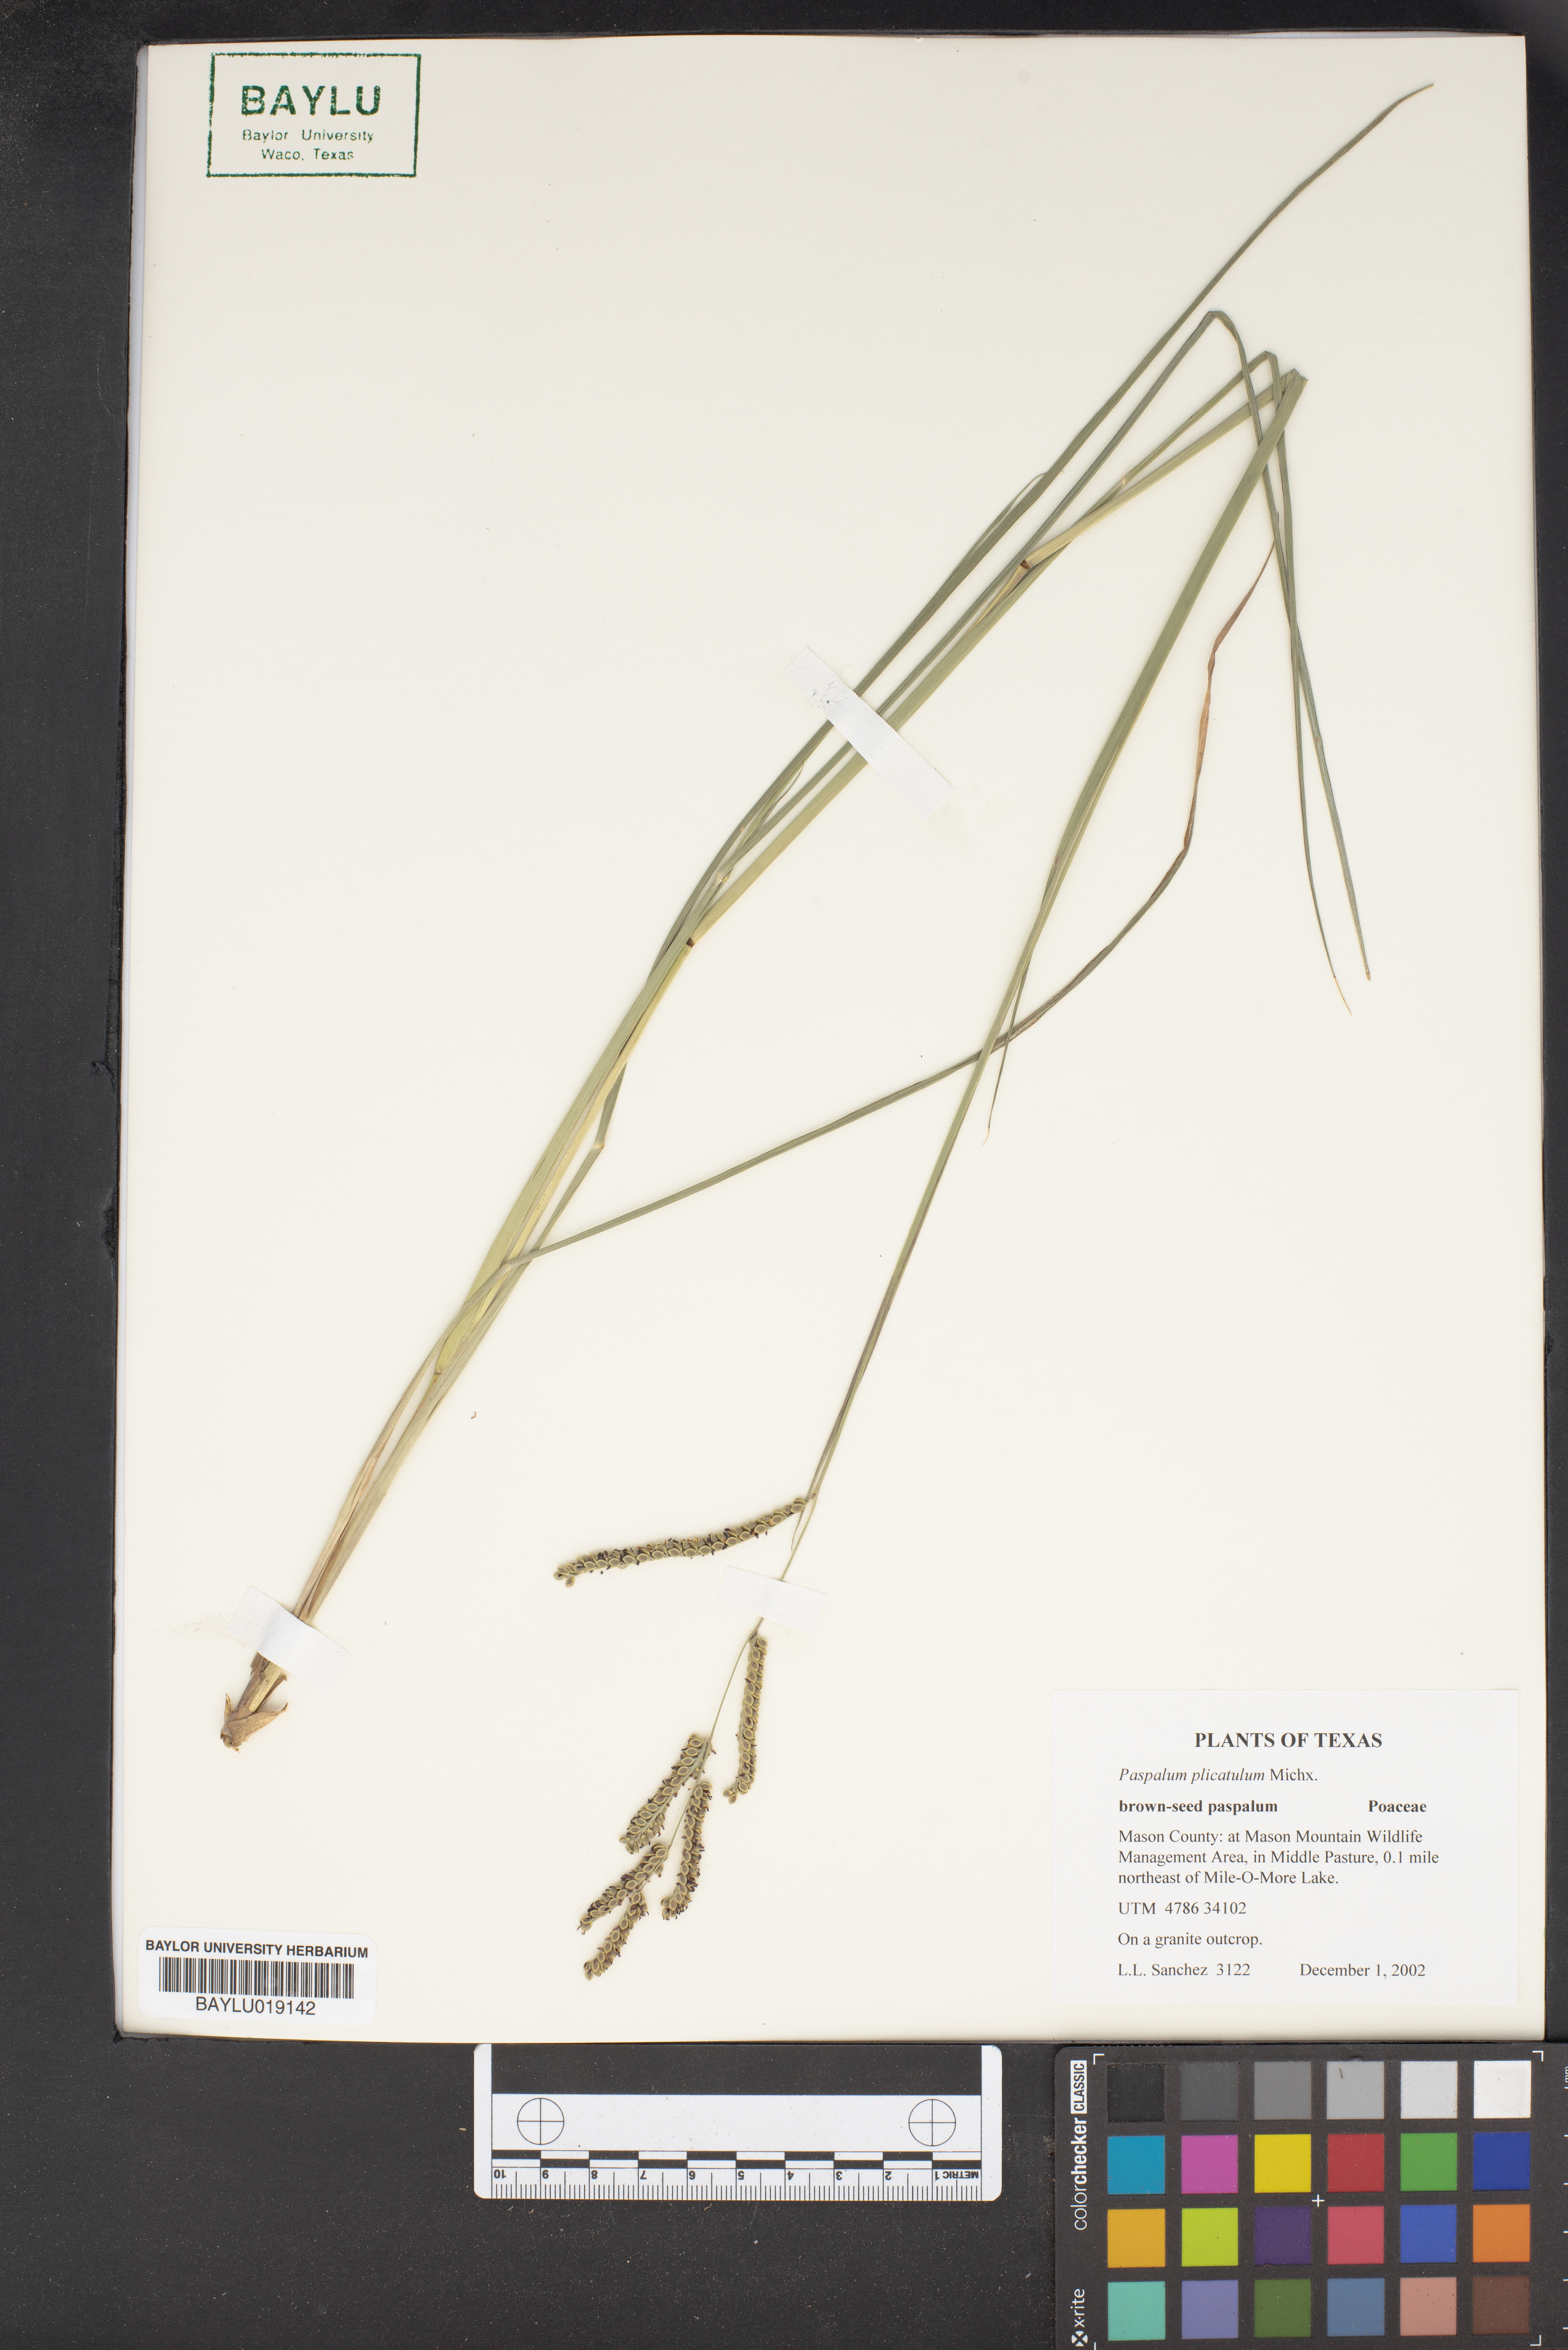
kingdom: Plantae
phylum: Tracheophyta
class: Liliopsida
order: Poales
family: Poaceae
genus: Paspalum
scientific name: Paspalum plicatulum
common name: Top paspalum
